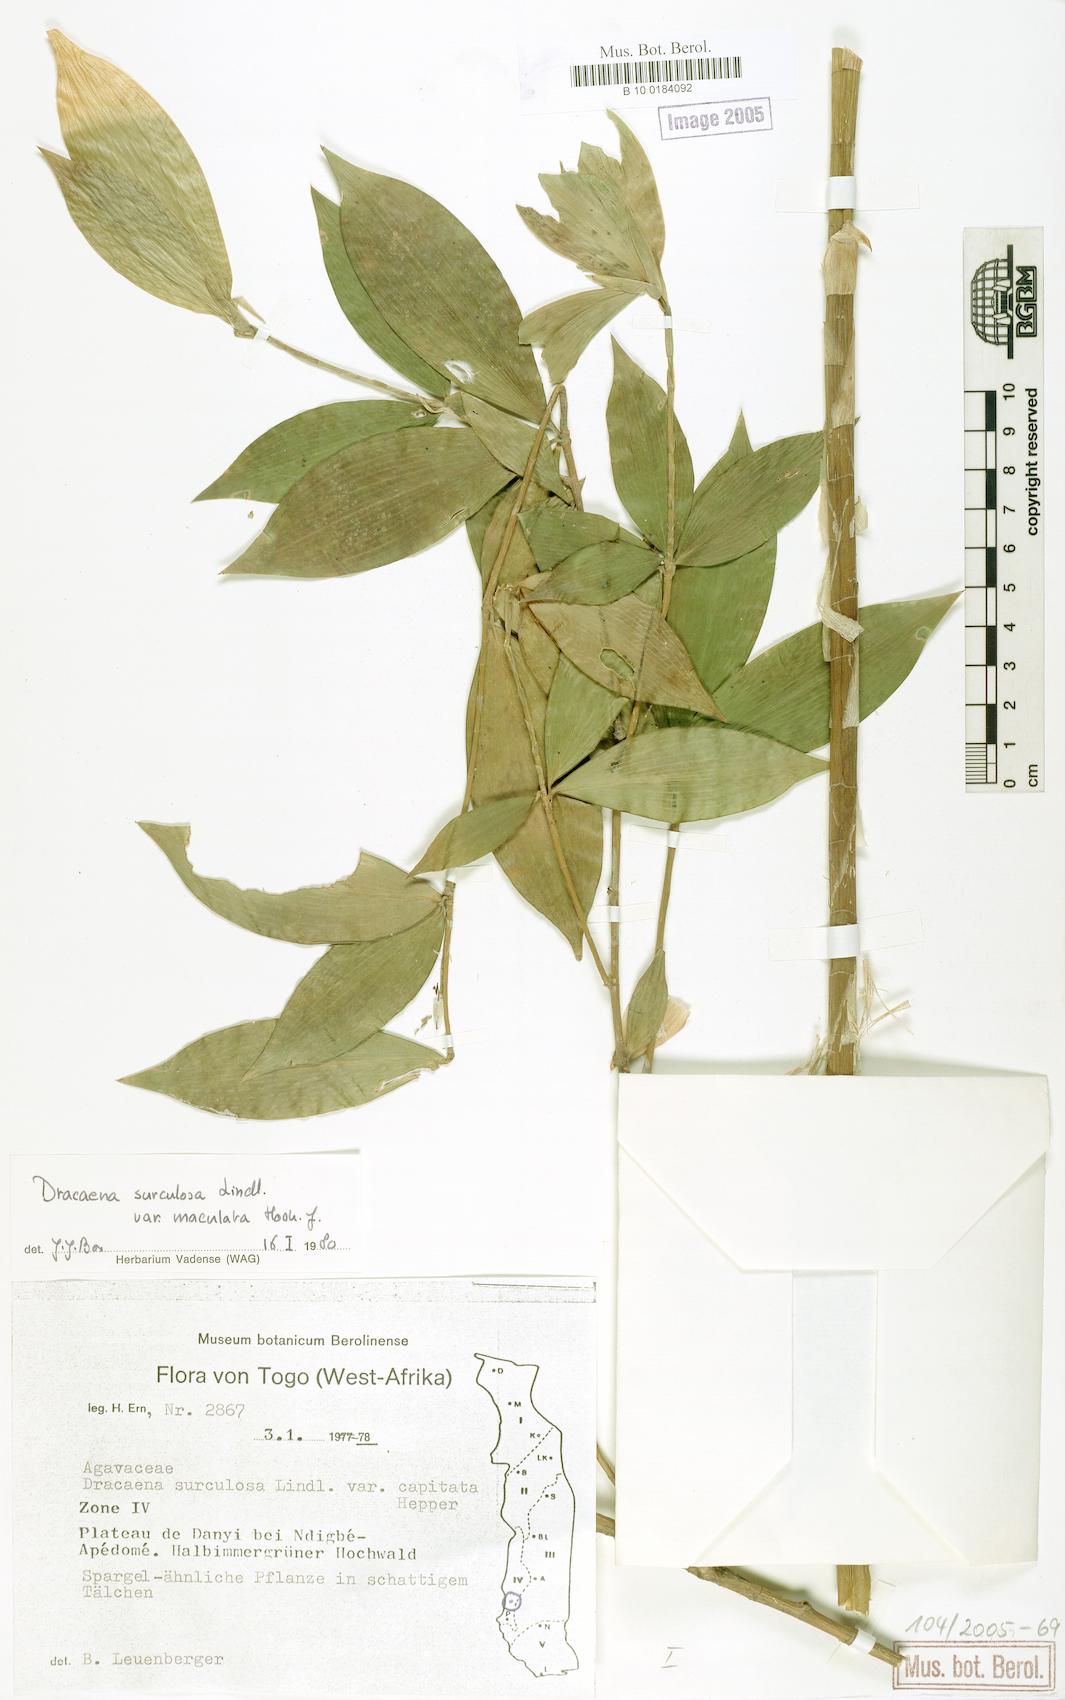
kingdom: Plantae
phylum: Tracheophyta
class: Liliopsida
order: Asparagales
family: Asparagaceae
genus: Dracaena
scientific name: Dracaena surculosa
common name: Spotted dracaena
